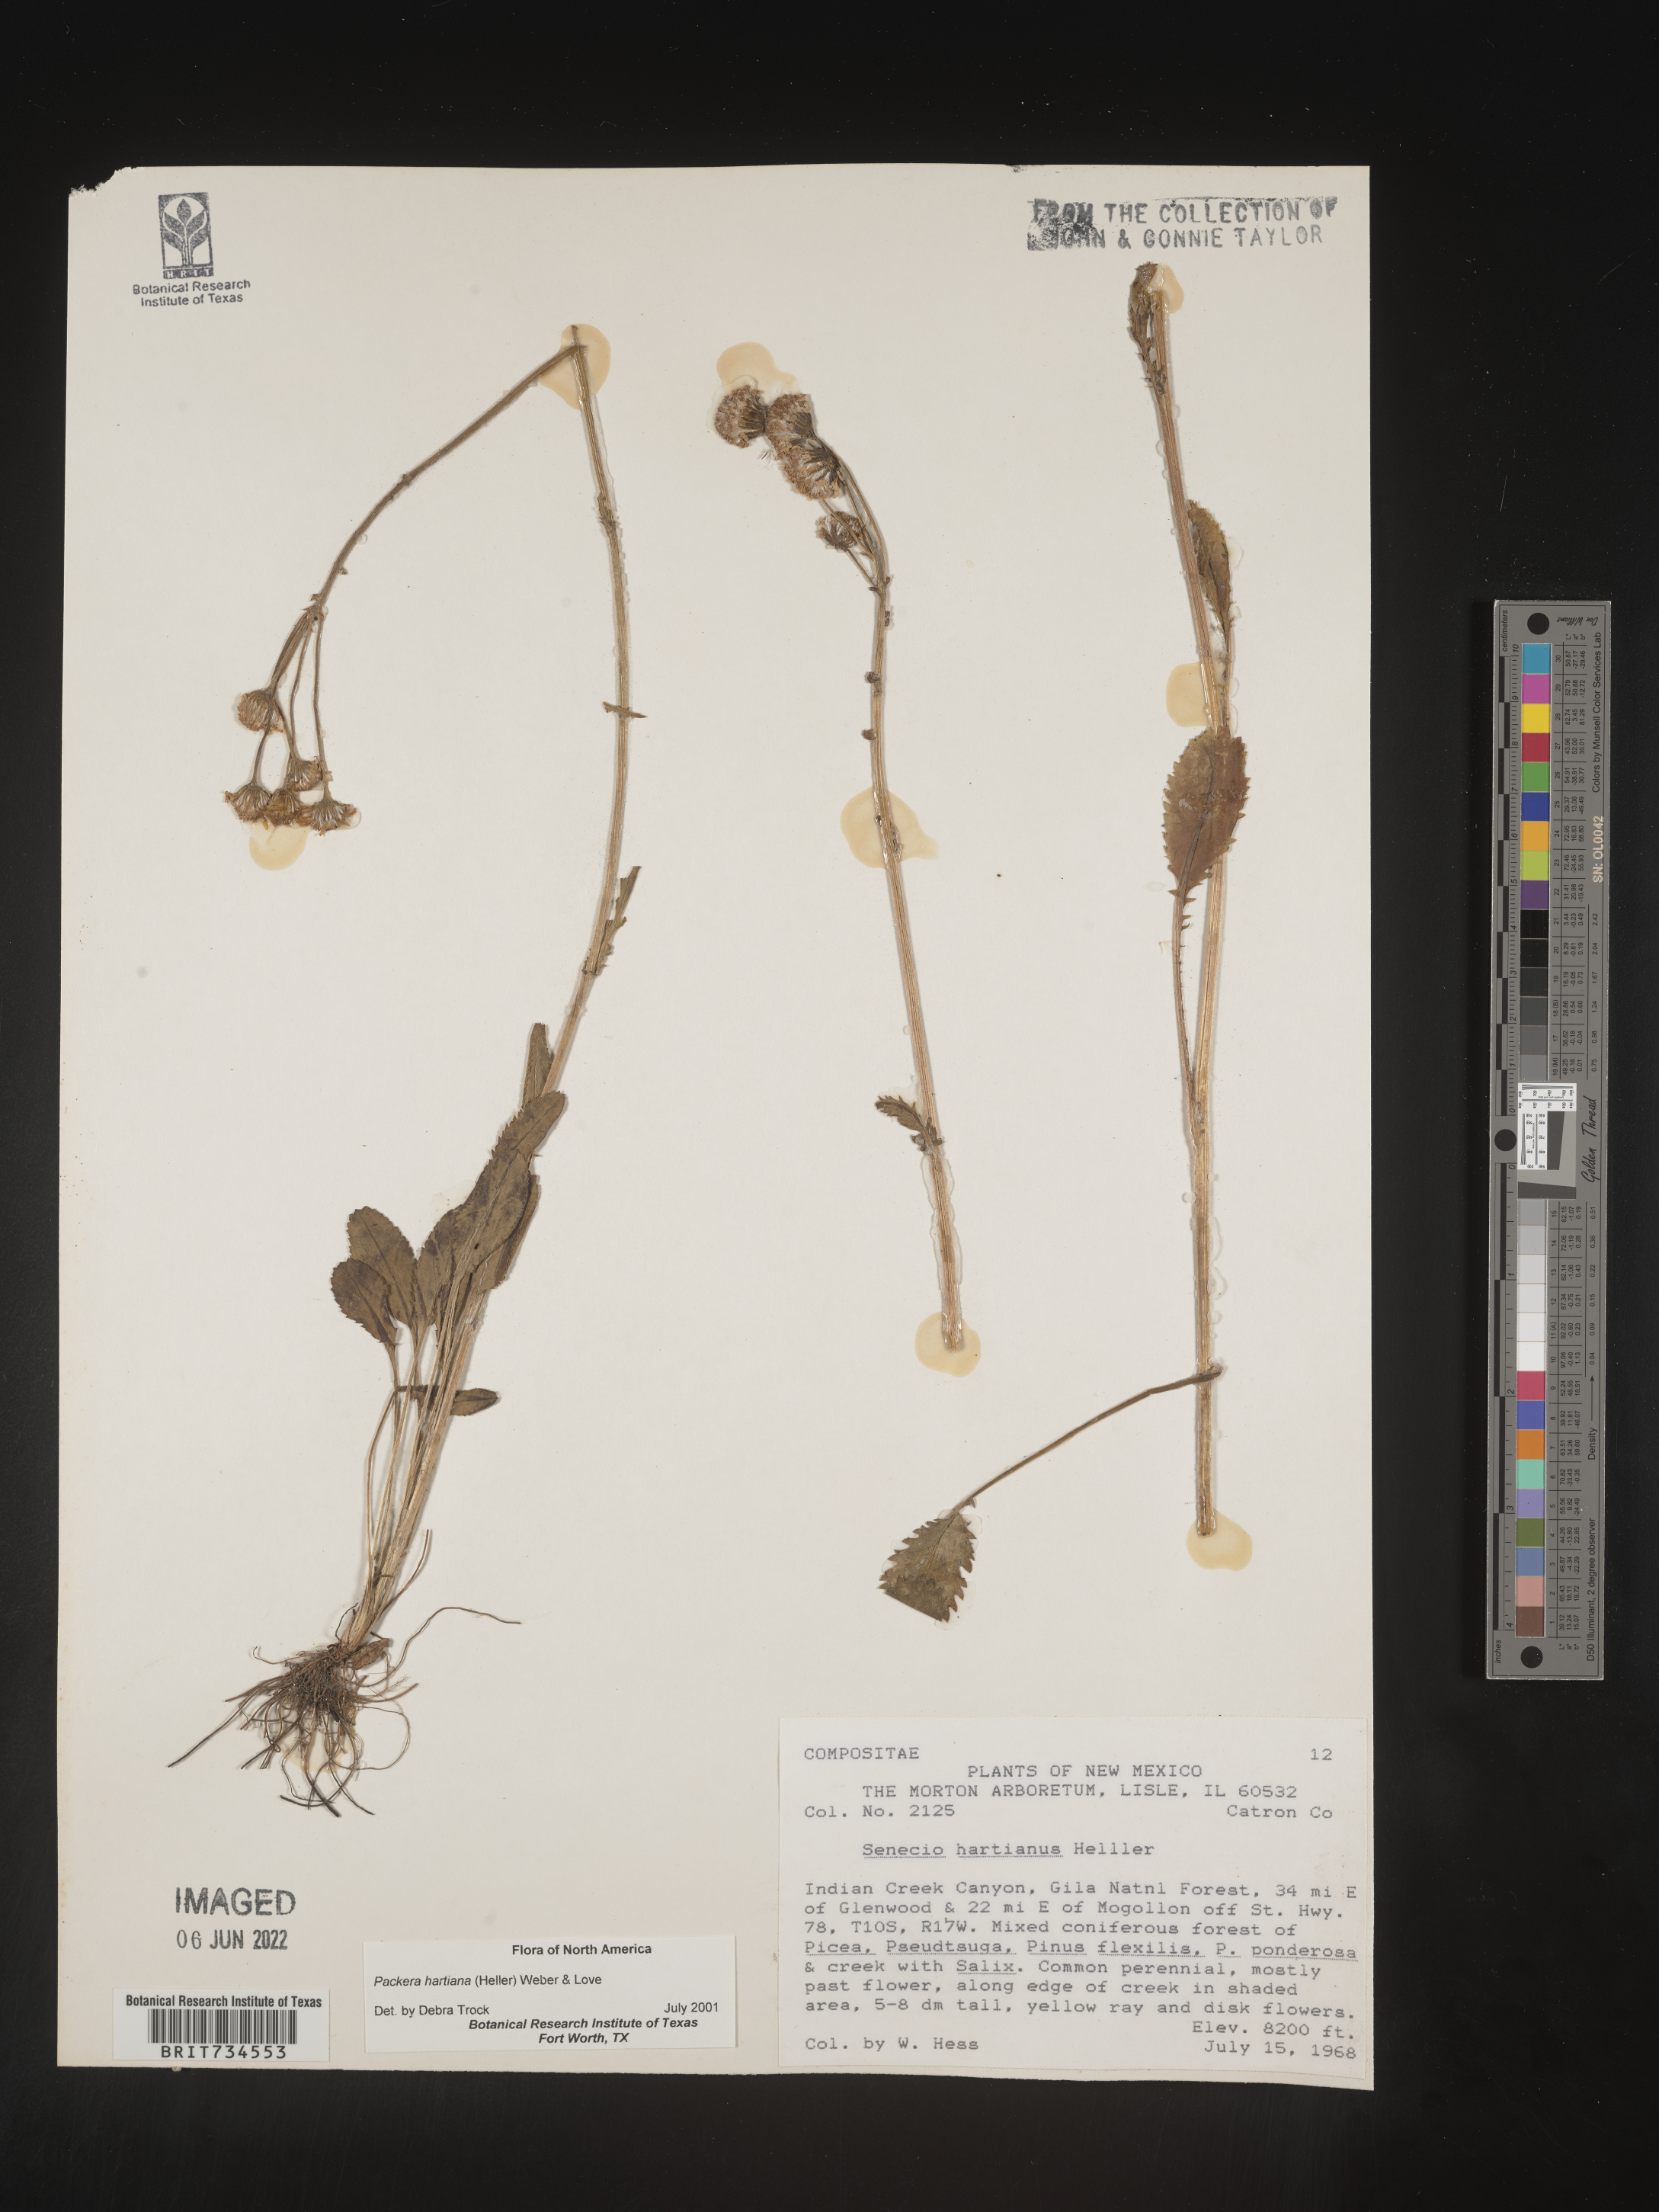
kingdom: Plantae
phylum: Tracheophyta
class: Magnoliopsida
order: Asterales
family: Asteraceae
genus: Packera
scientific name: Packera hartiana
